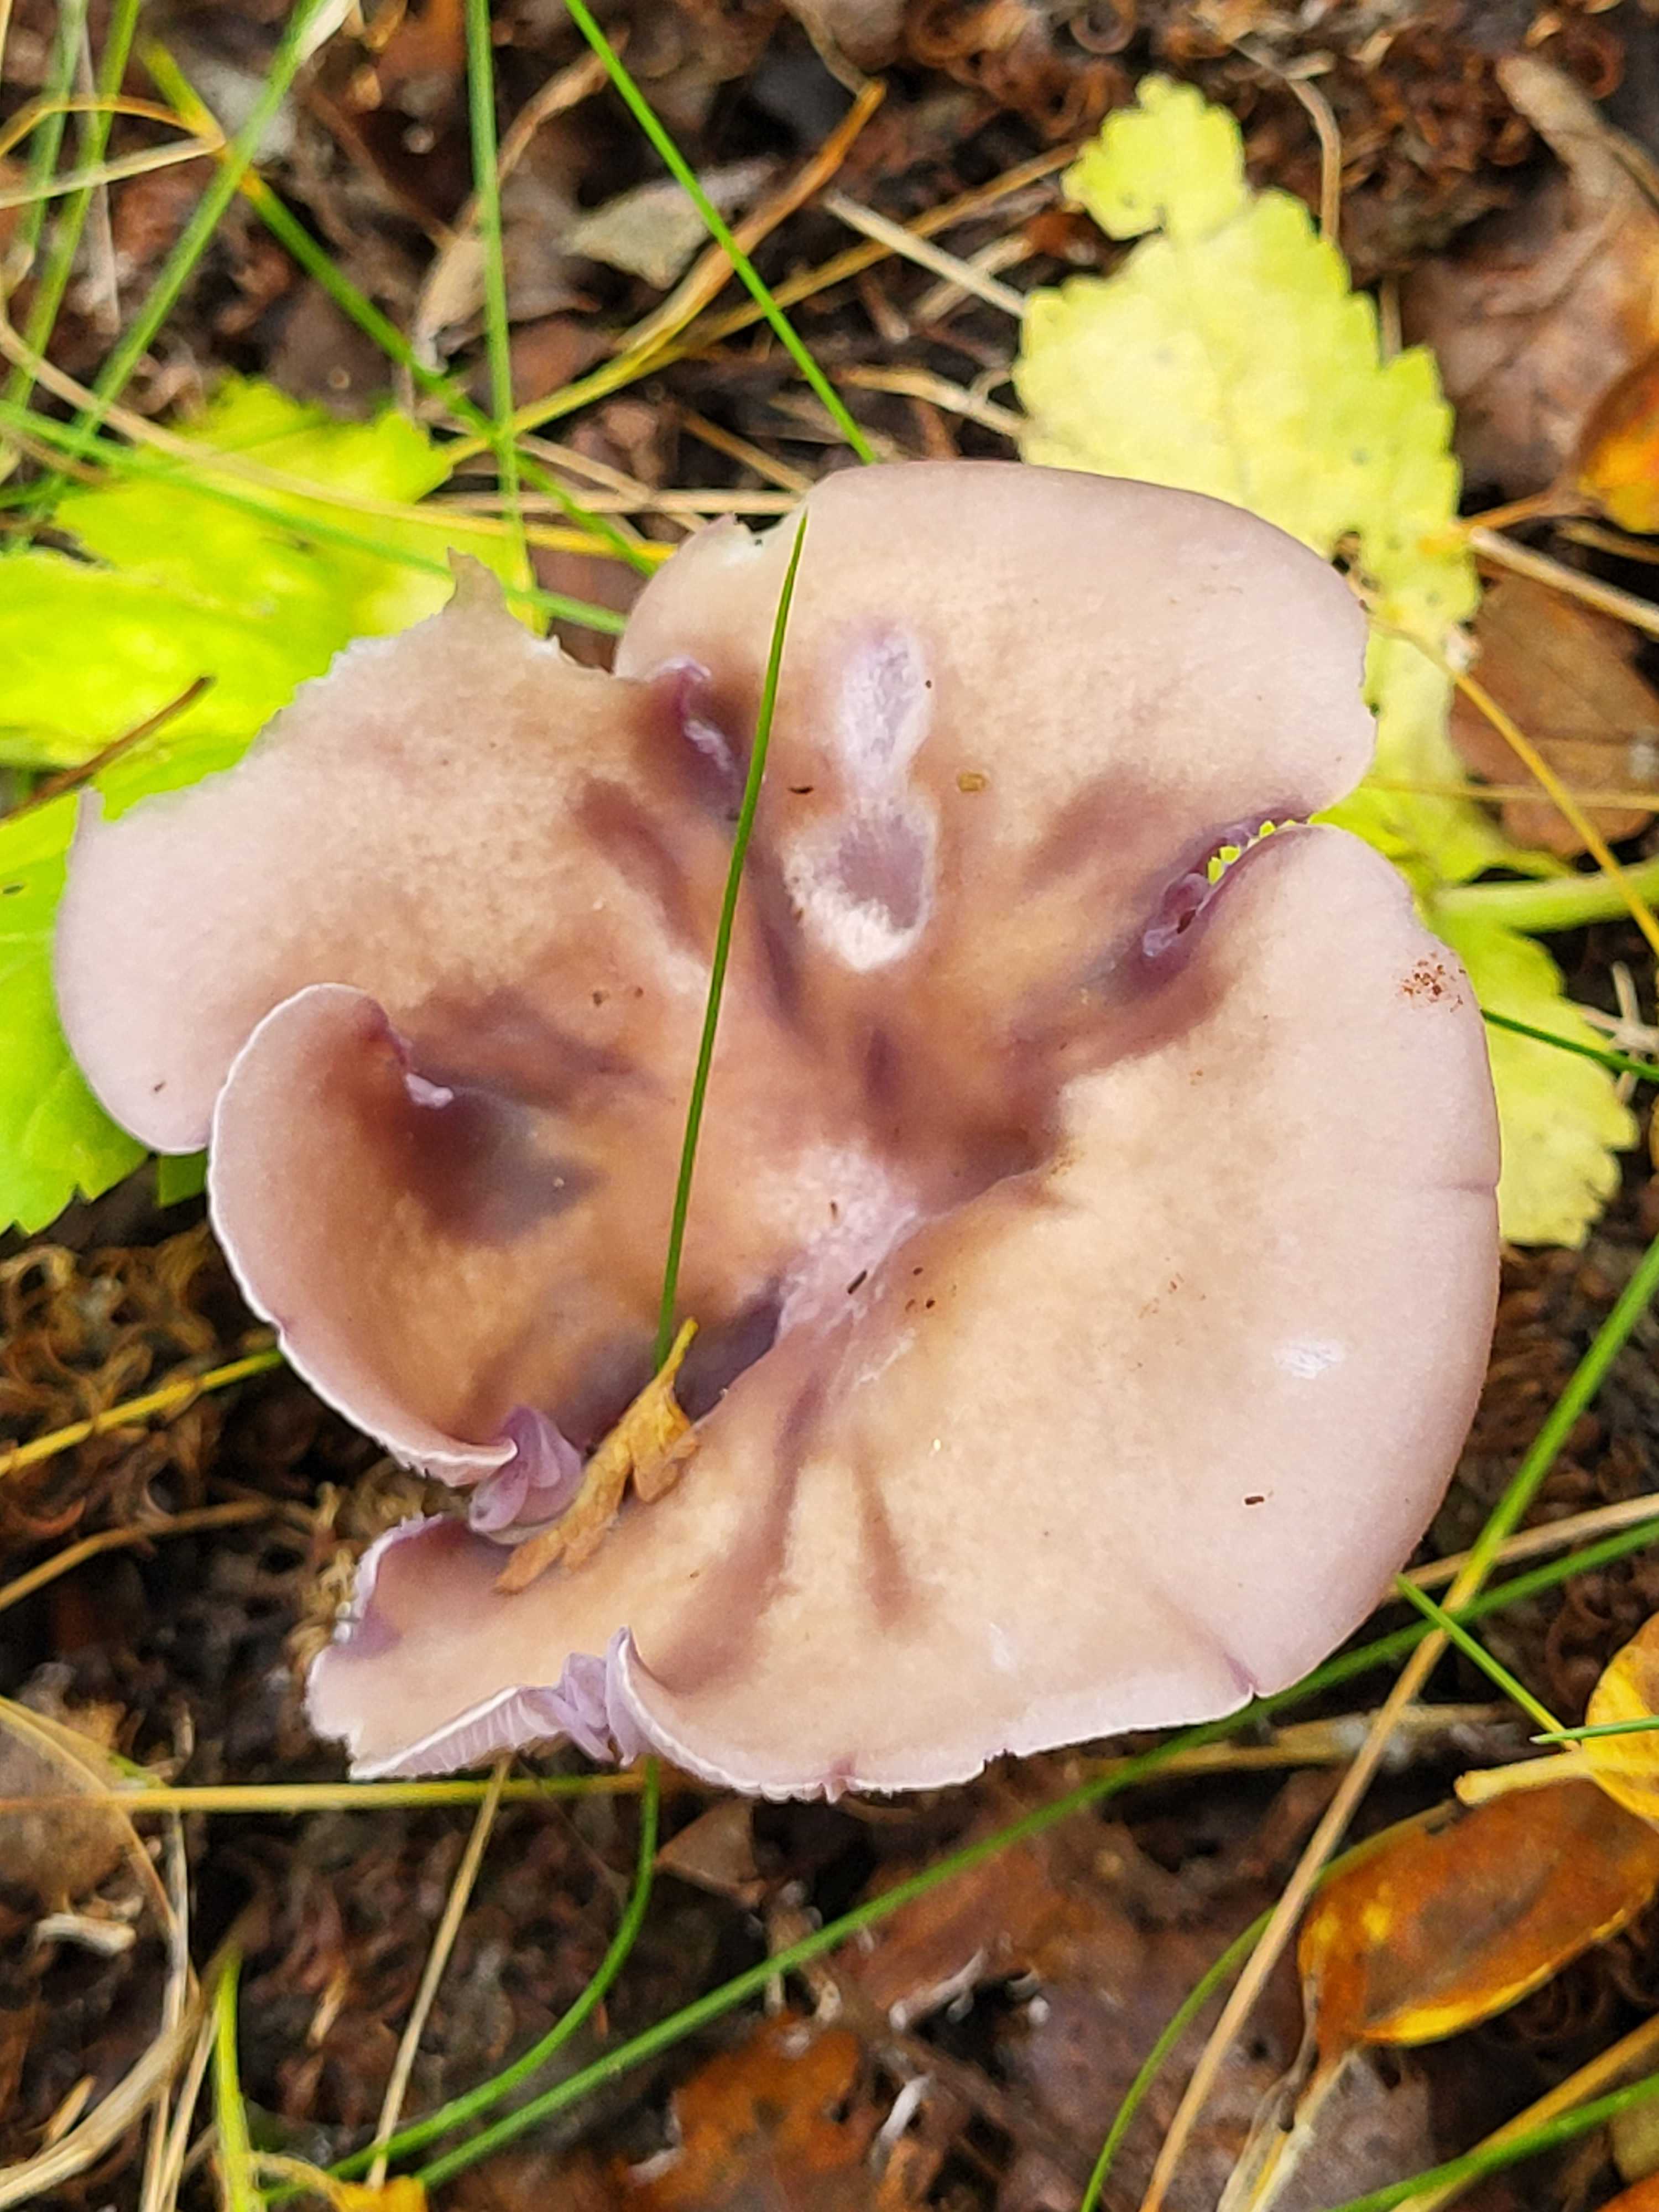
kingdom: Fungi
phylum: Basidiomycota
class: Agaricomycetes
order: Agaricales
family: Tricholomataceae
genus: Lepista
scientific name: Lepista
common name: hekseringshat
